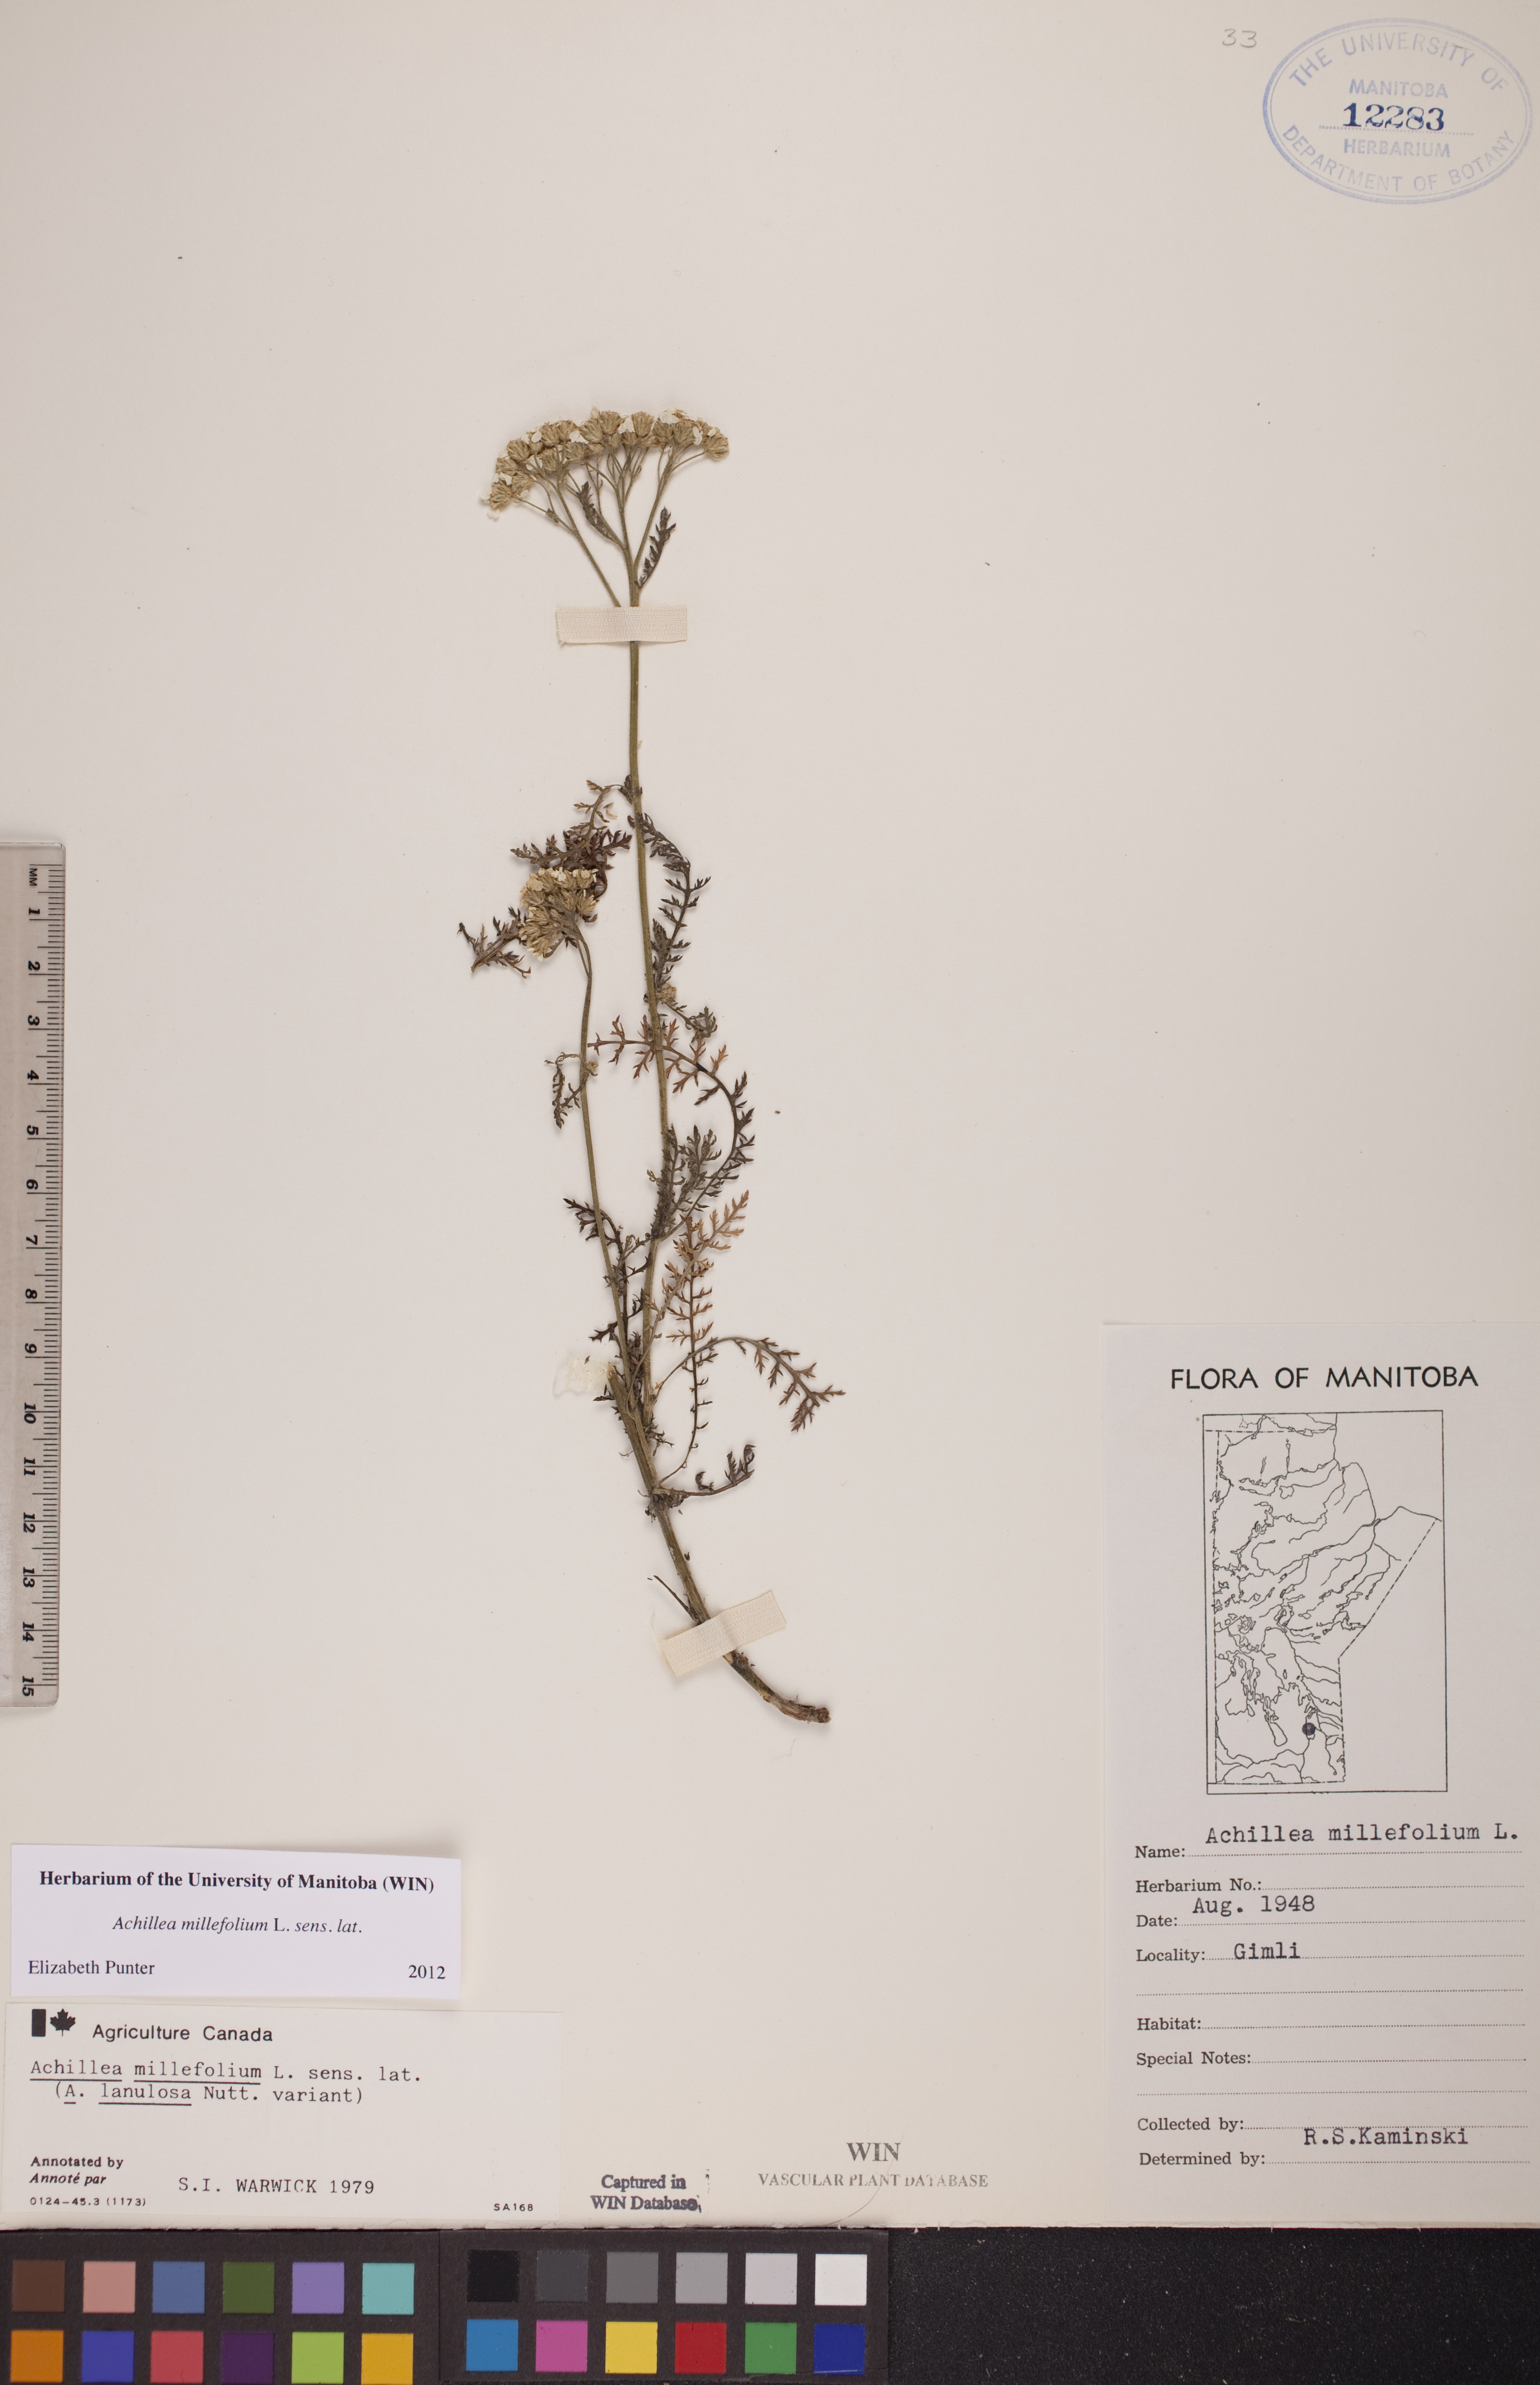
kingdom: Plantae
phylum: Tracheophyta
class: Magnoliopsida
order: Asterales
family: Asteraceae
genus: Achillea
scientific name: Achillea millefolium
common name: Yarrow
